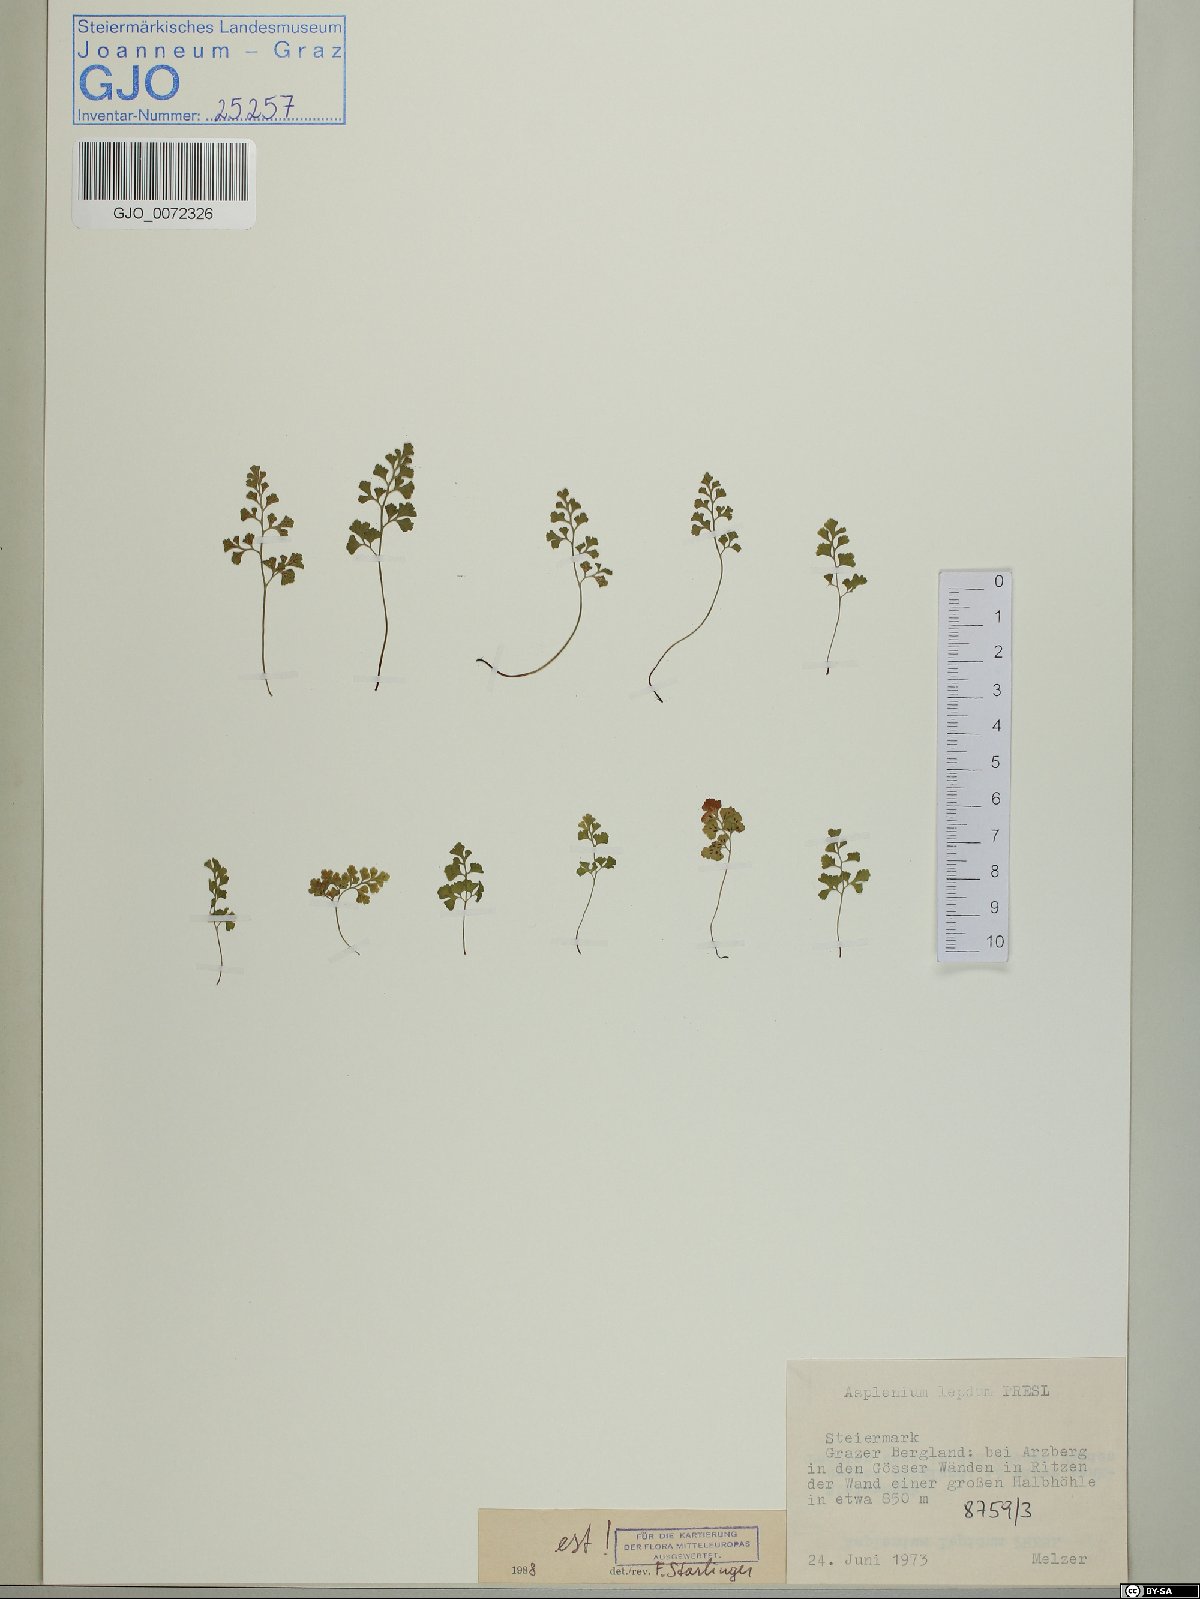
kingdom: Plantae
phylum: Tracheophyta
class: Polypodiopsida
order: Polypodiales
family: Aspleniaceae
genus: Asplenium
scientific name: Asplenium lepidum
